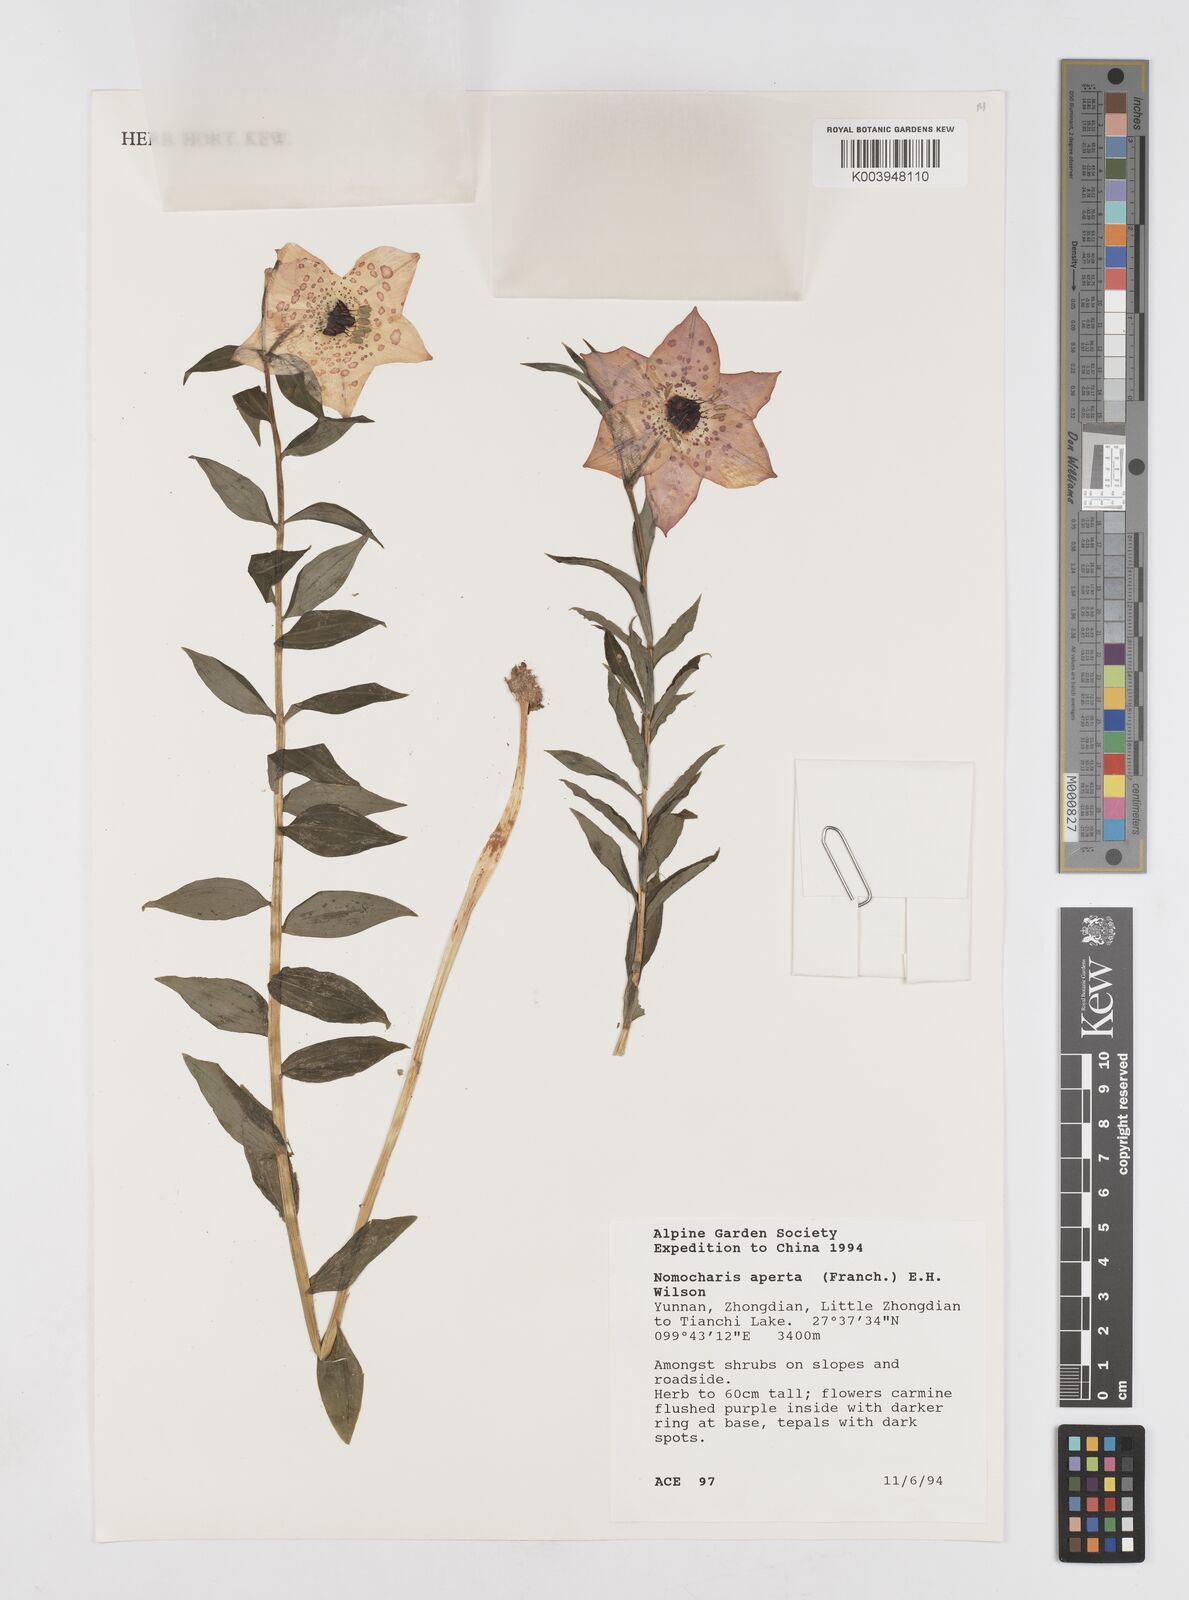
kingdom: Plantae
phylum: Tracheophyta
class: Liliopsida
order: Liliales
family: Liliaceae
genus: Lilium
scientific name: Lilium apertum
